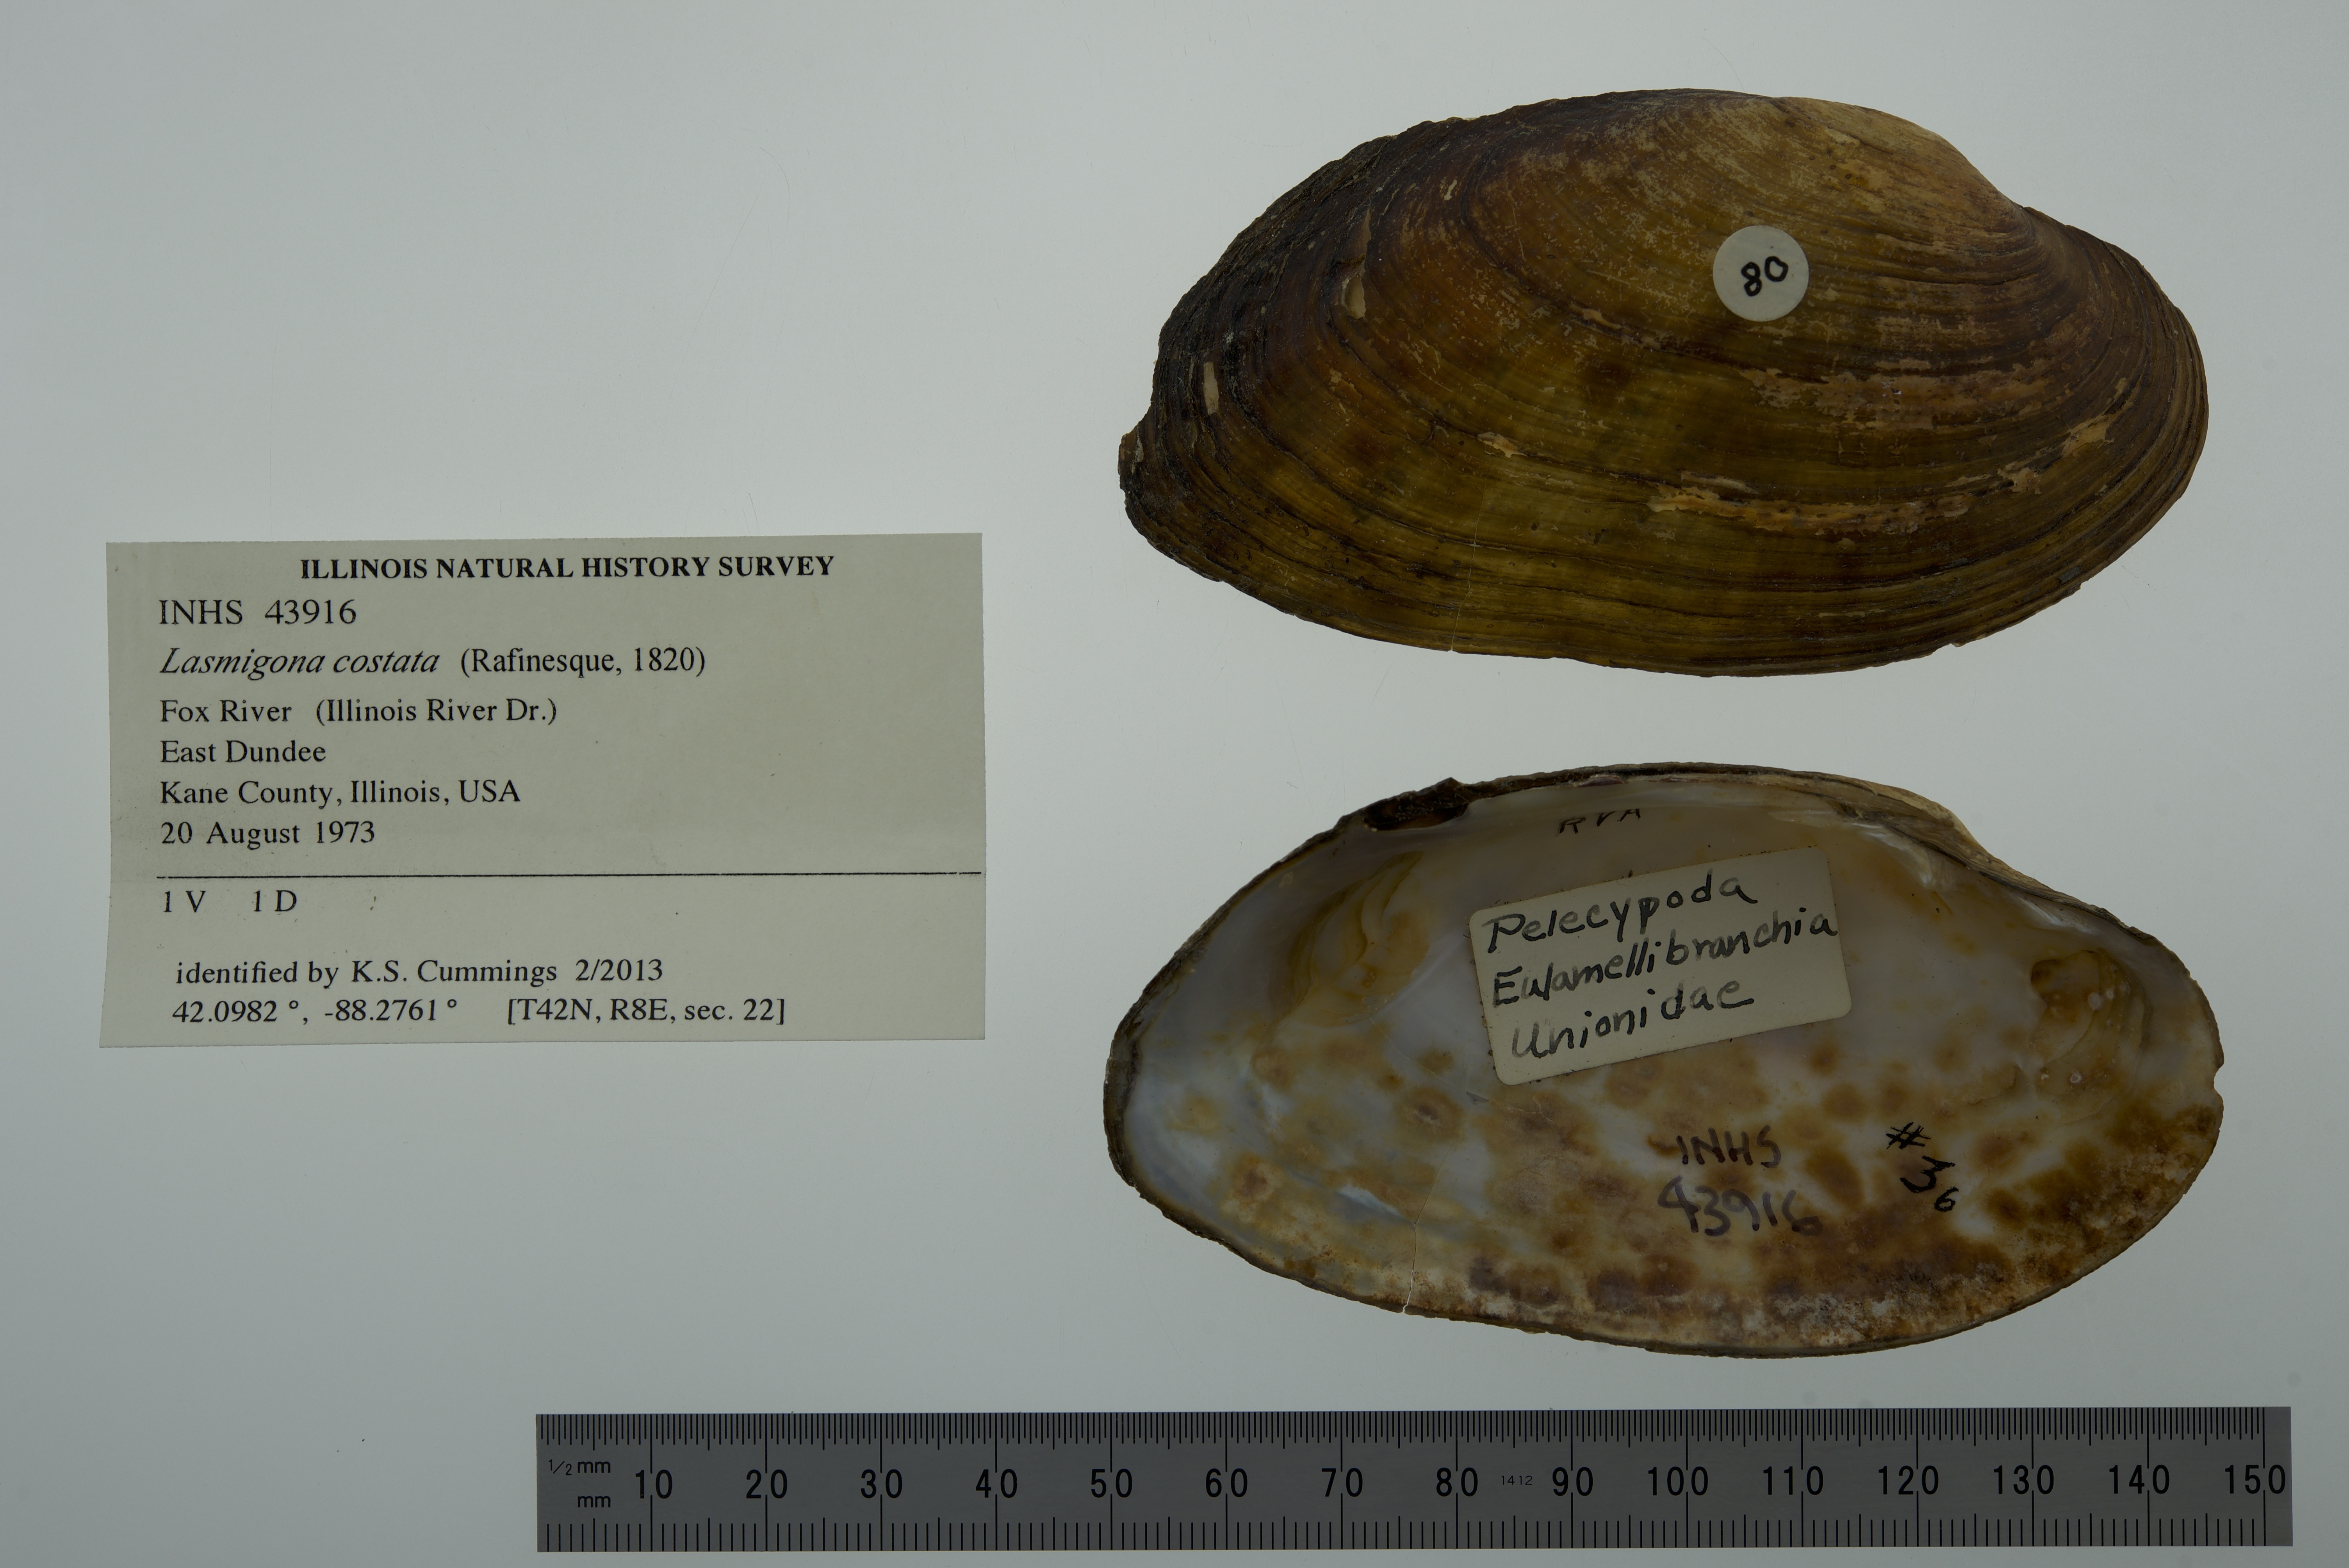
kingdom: Animalia
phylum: Mollusca
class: Bivalvia
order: Unionida
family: Unionidae
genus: Lasmigona
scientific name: Lasmigona costata
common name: Flutedshell
